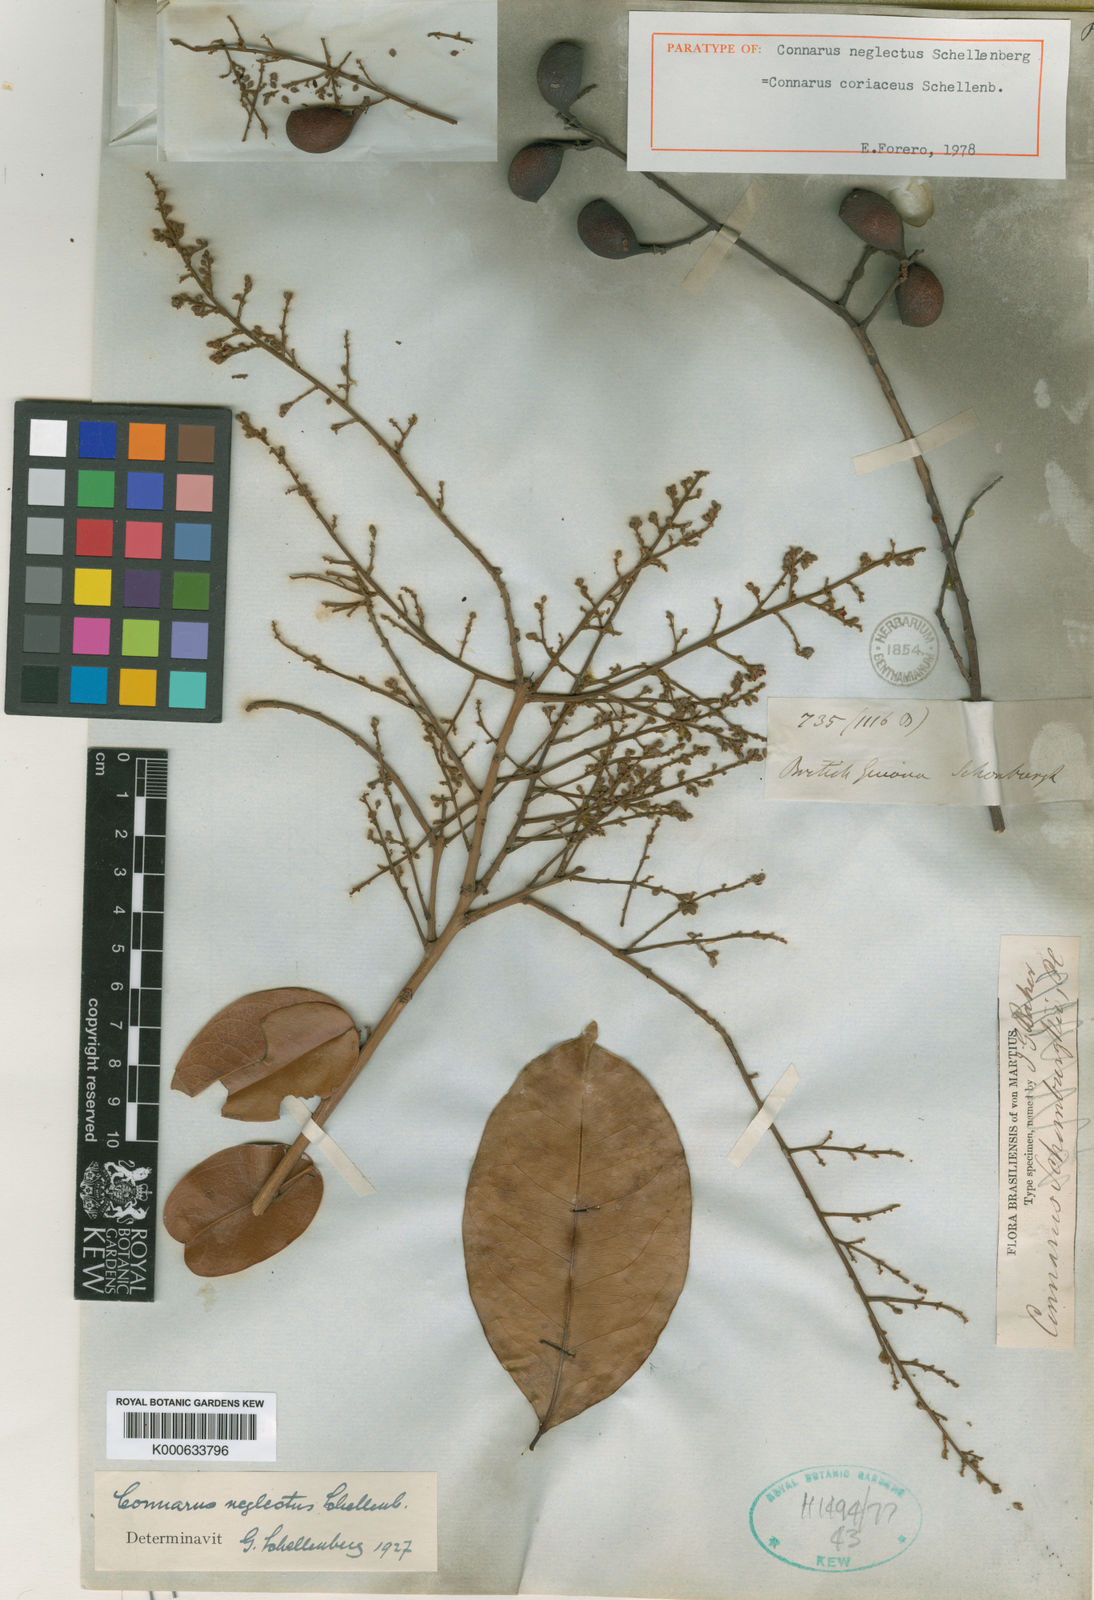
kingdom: Plantae
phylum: Tracheophyta
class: Magnoliopsida
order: Oxalidales
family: Connaraceae
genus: Connarus
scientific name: Connarus coriaceus
